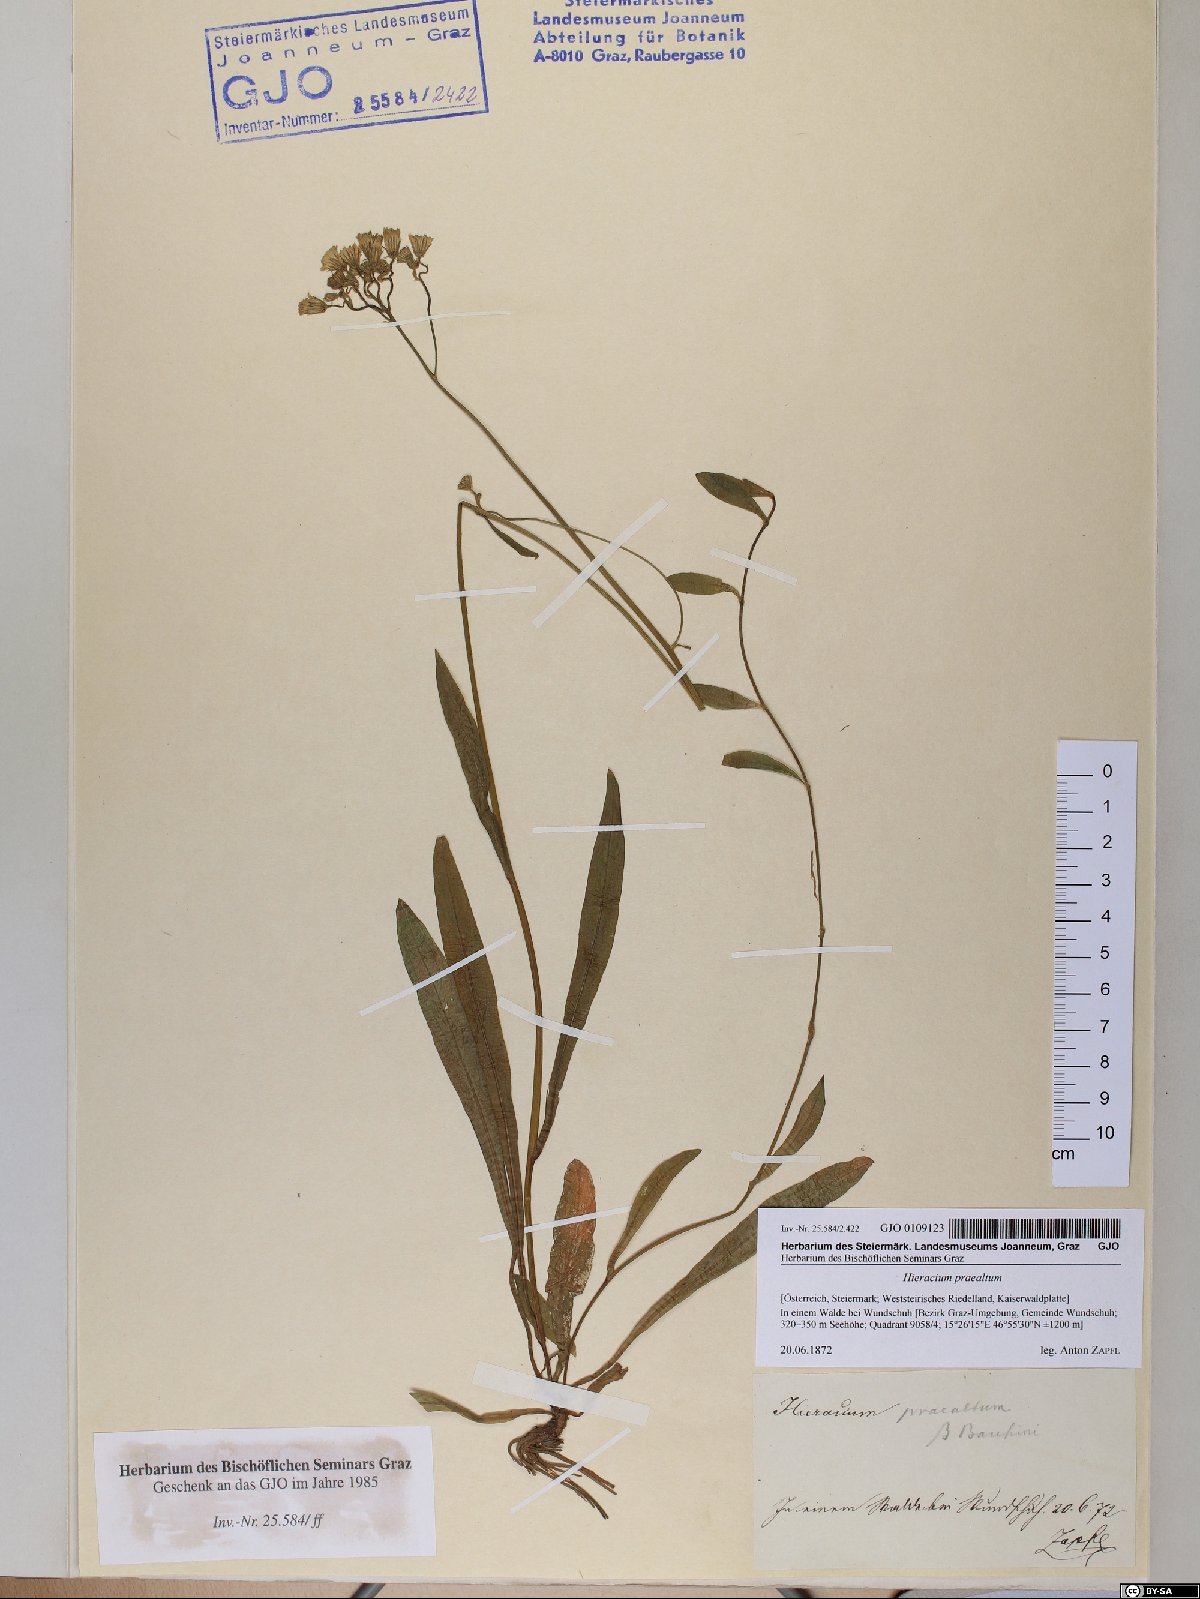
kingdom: Plantae
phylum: Tracheophyta
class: Magnoliopsida
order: Asterales
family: Asteraceae
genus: Pilosella
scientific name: Pilosella piloselloides
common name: Glaucous king-devil
